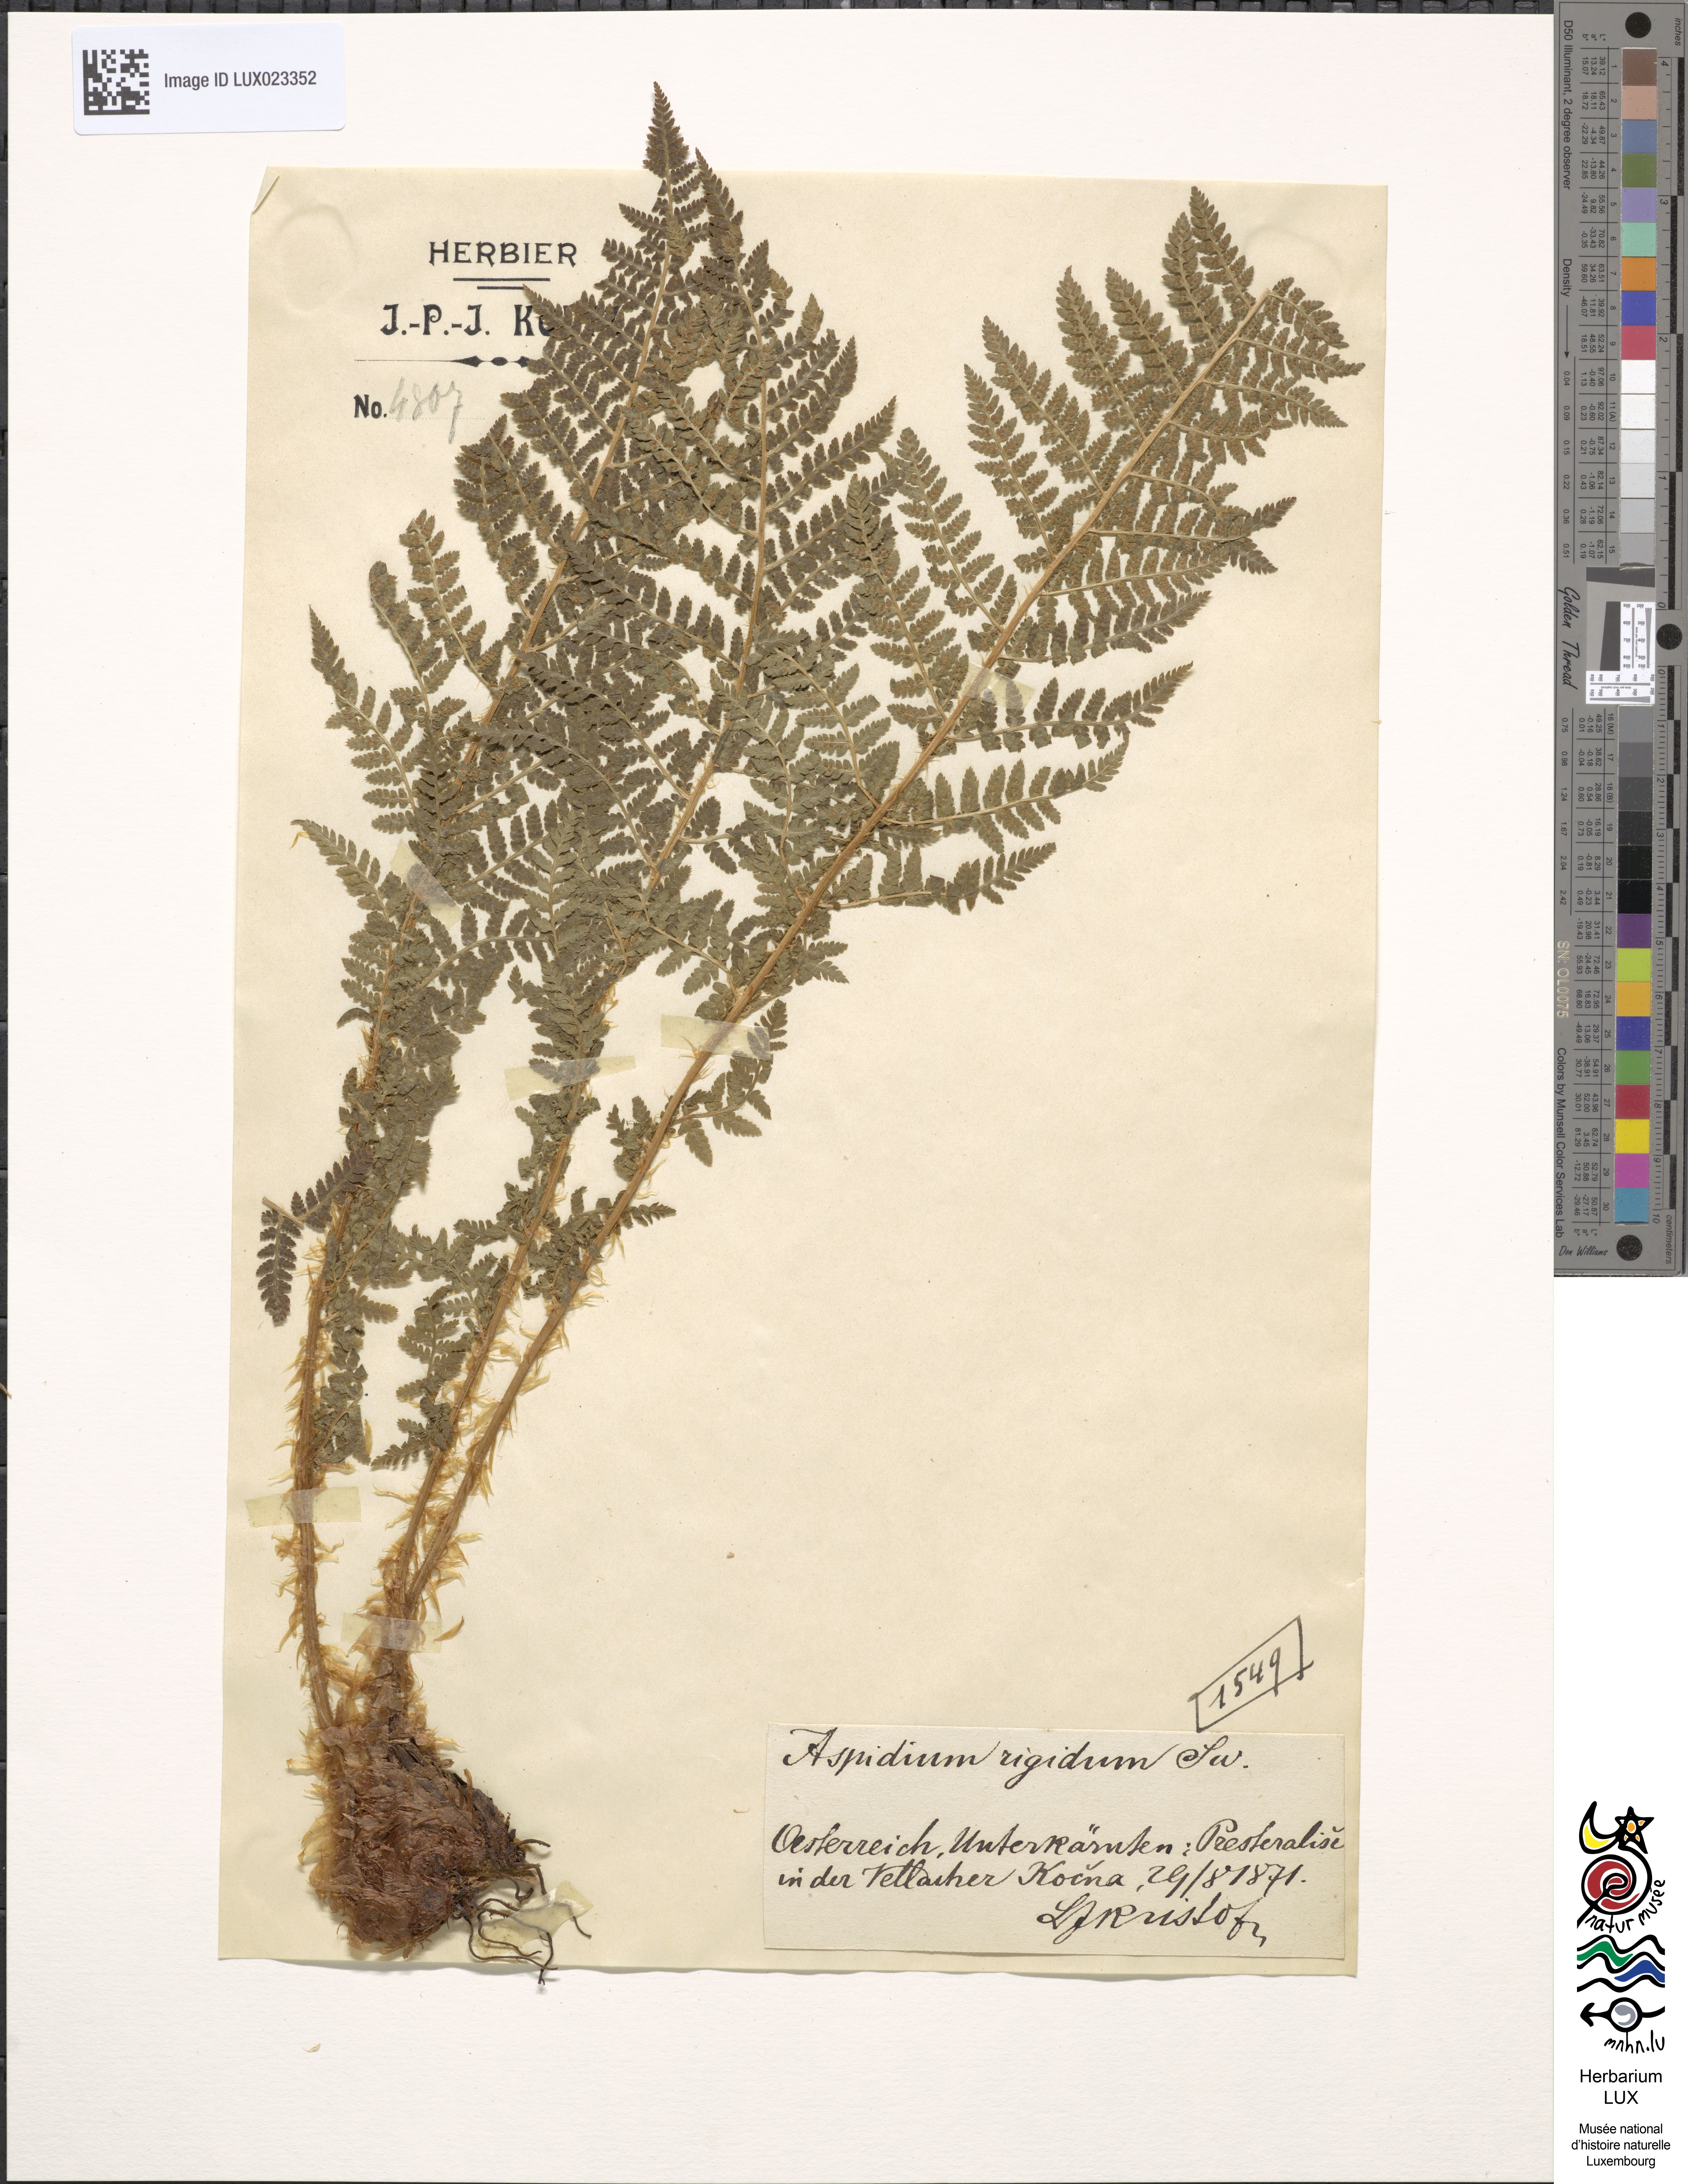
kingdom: Plantae
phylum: Tracheophyta
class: Polypodiopsida
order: Polypodiales
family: Dryopteridaceae
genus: Dryopteris
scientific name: Dryopteris villarii
